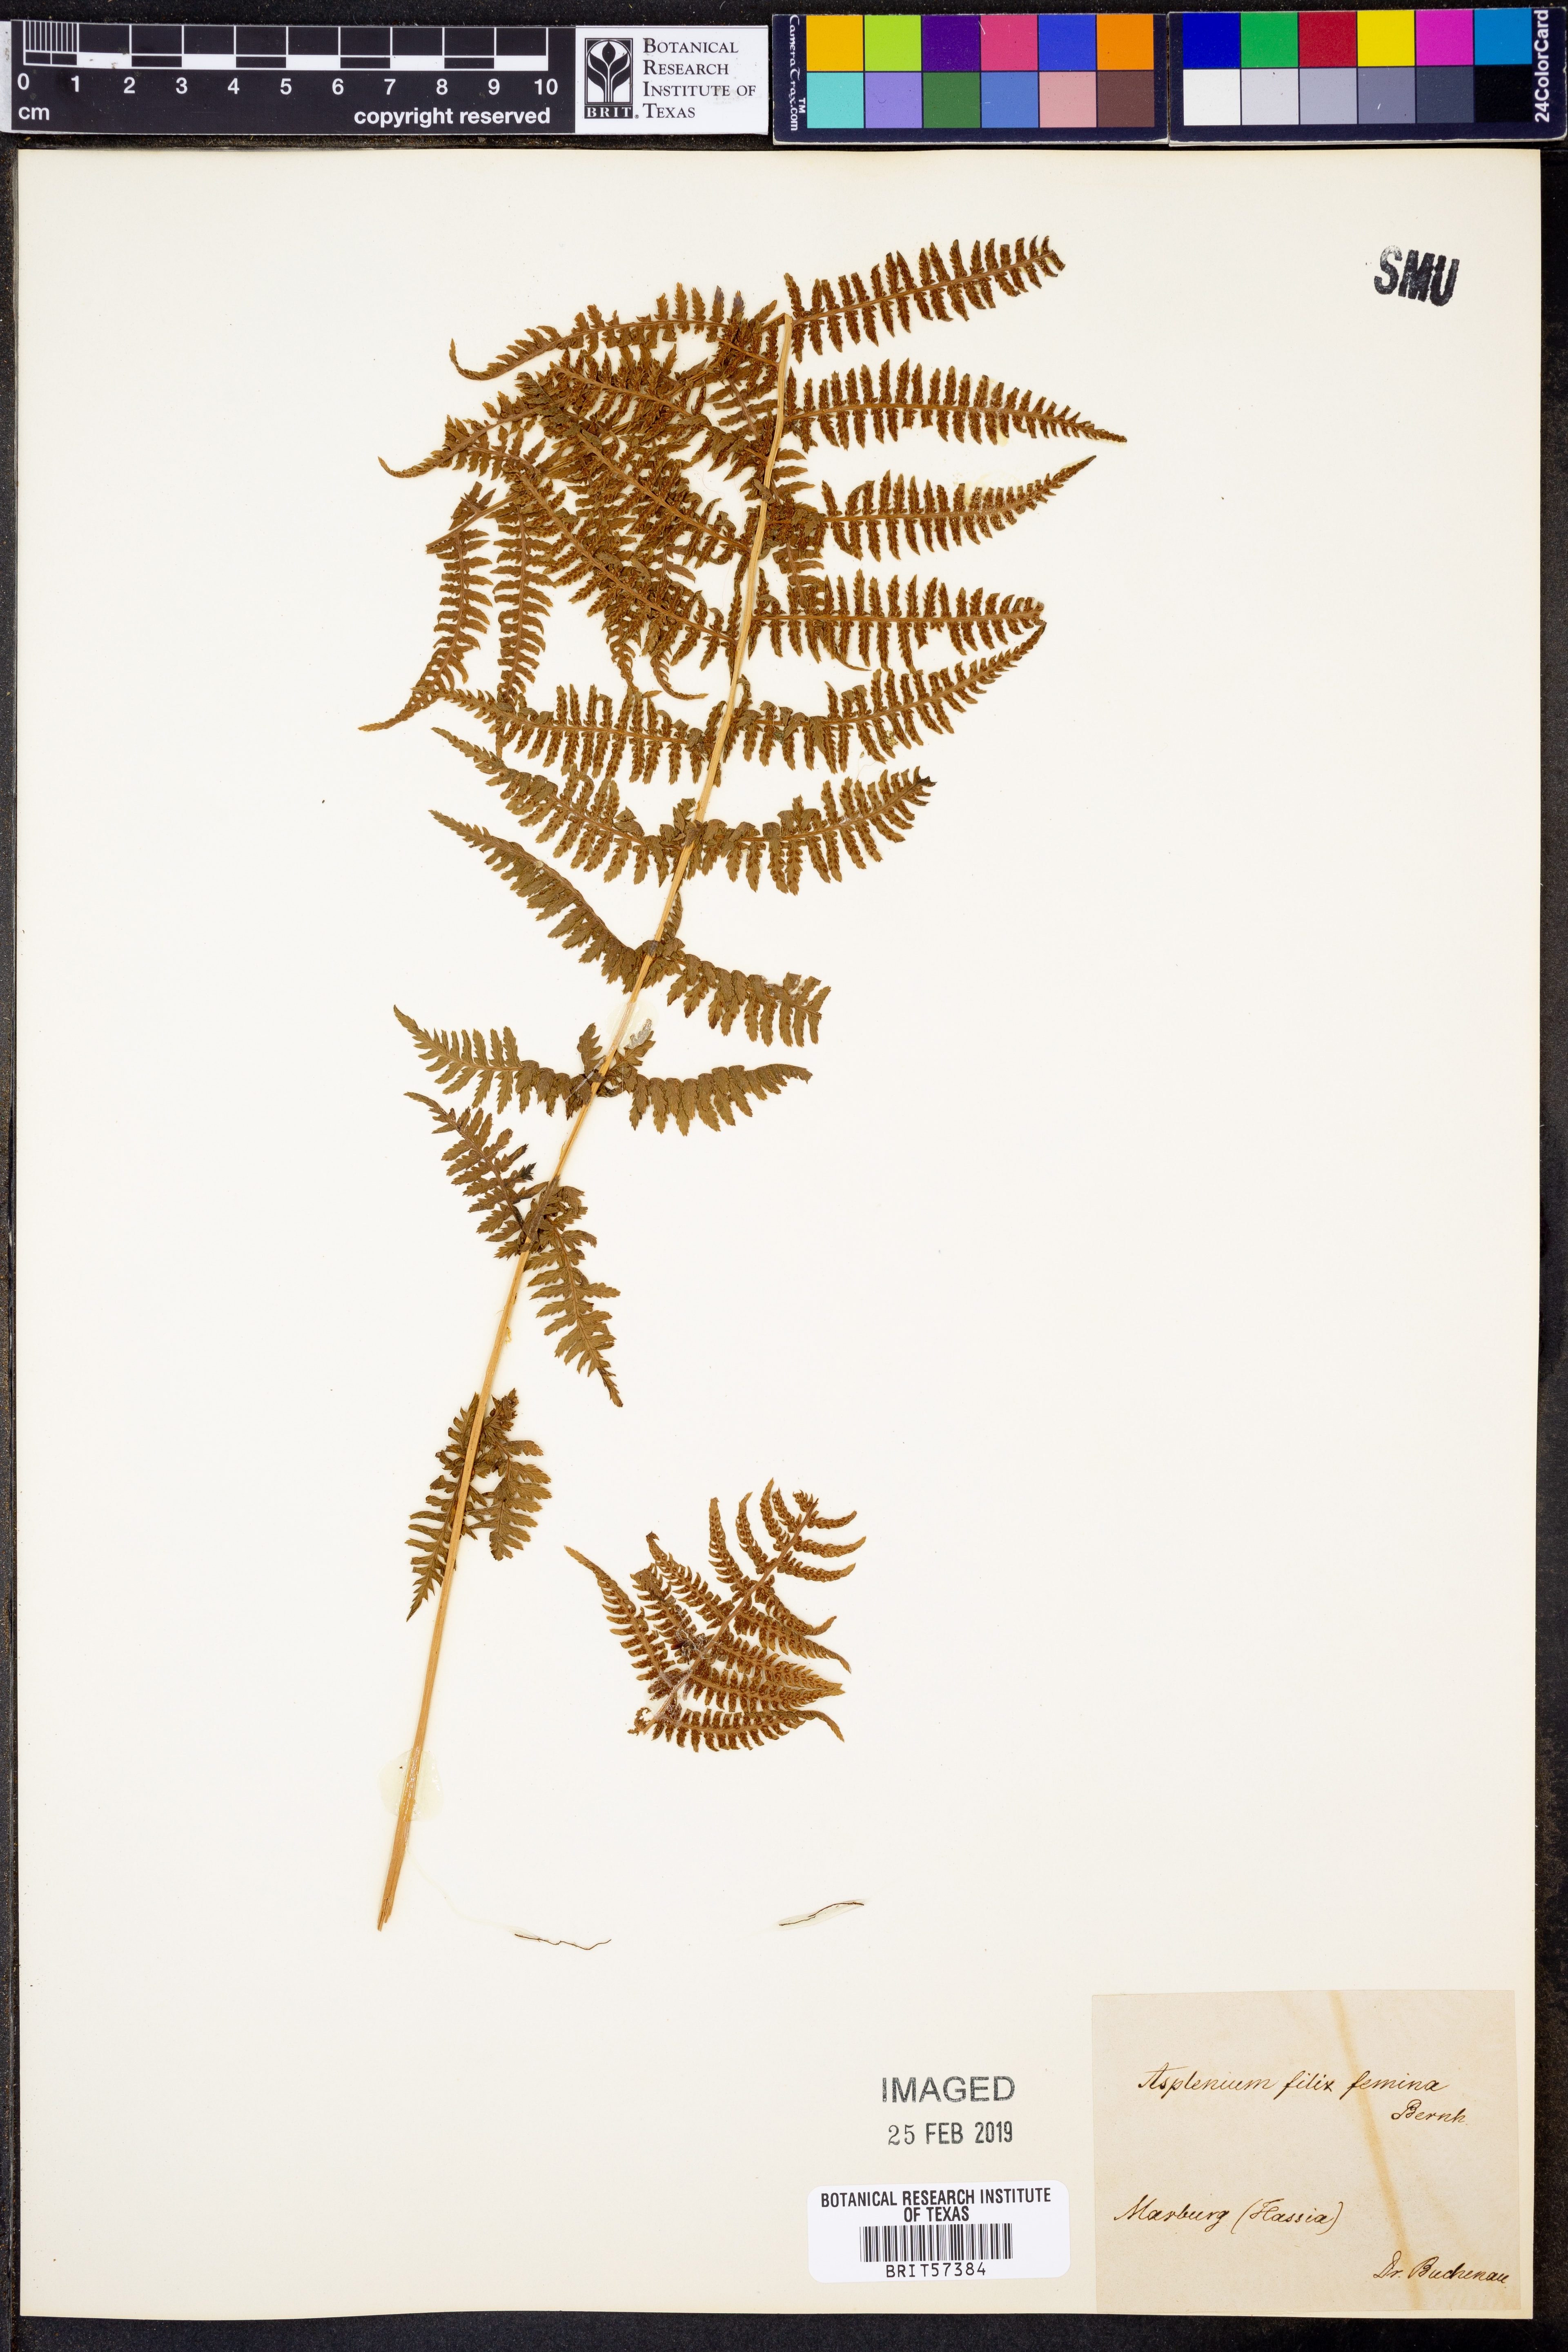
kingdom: Plantae
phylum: Tracheophyta
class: Polypodiopsida
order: Polypodiales
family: Athyriaceae
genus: Athyrium
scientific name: Athyrium filix-femina
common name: Lady fern
